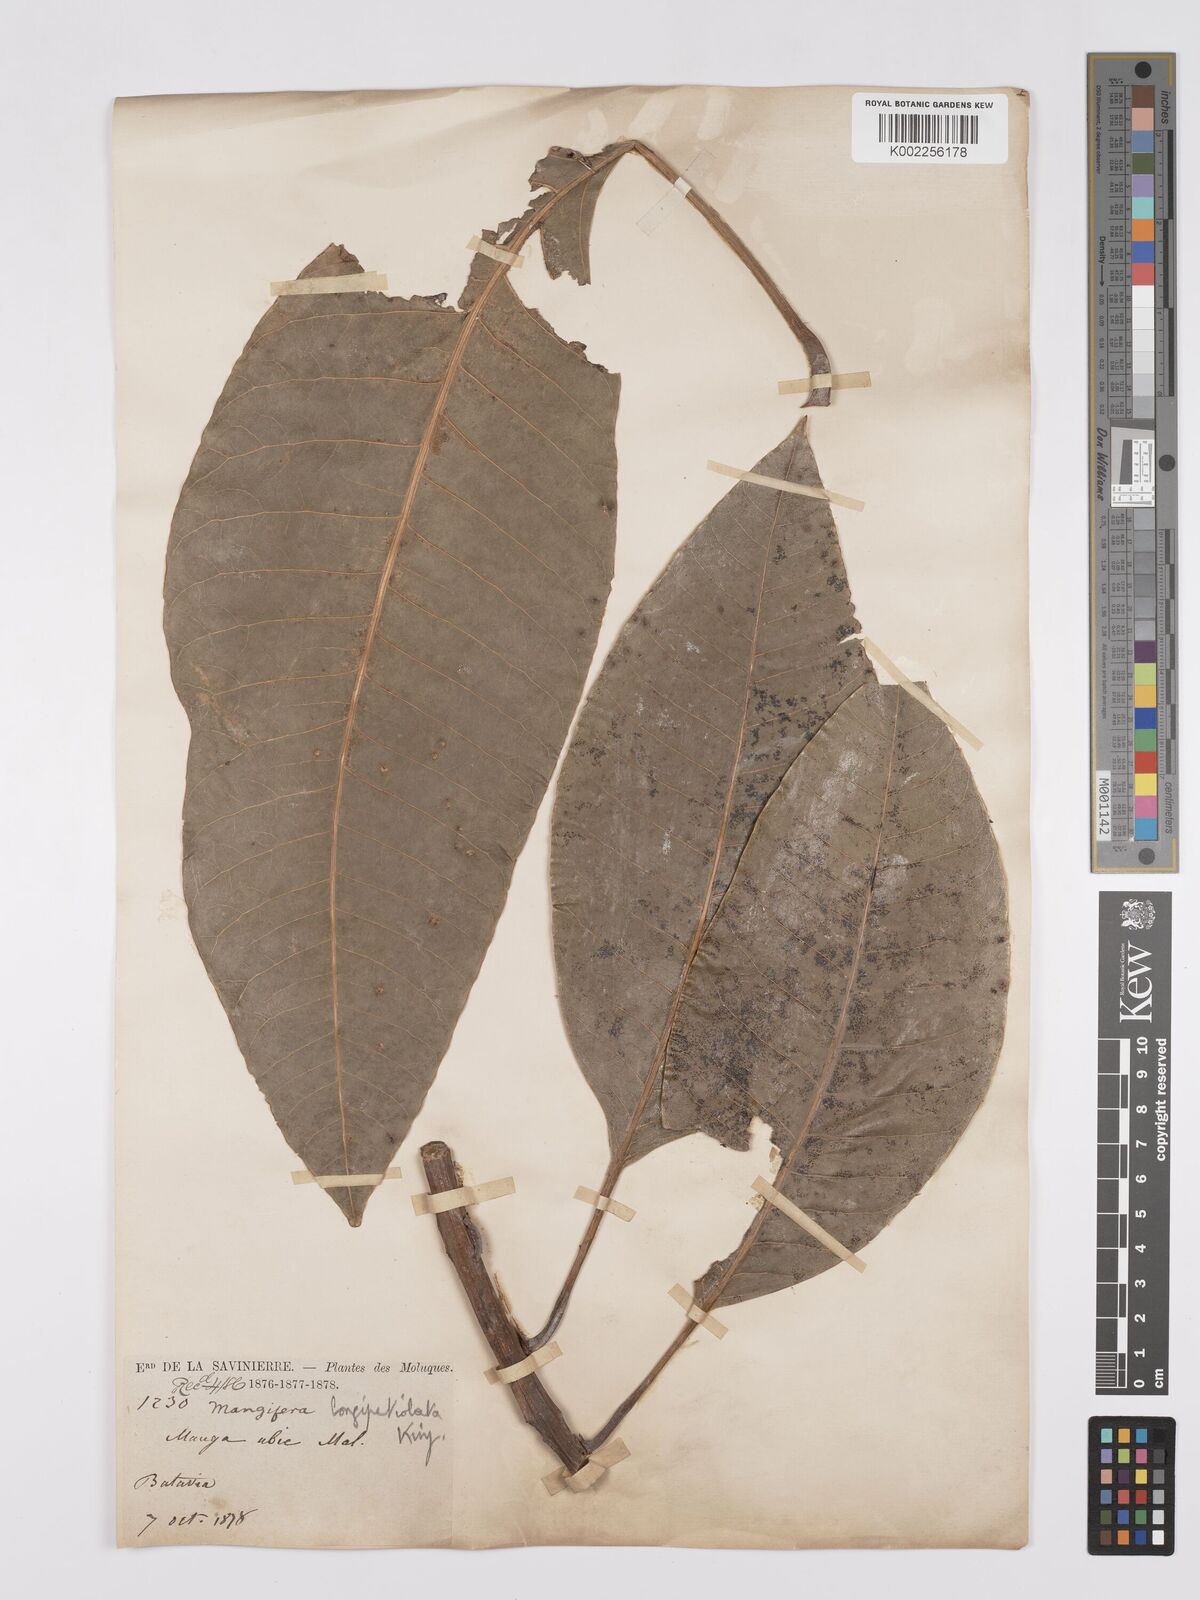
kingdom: Plantae
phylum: Tracheophyta
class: Magnoliopsida
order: Sapindales
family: Anacardiaceae
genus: Mangifera
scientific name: Mangifera quadrifida
